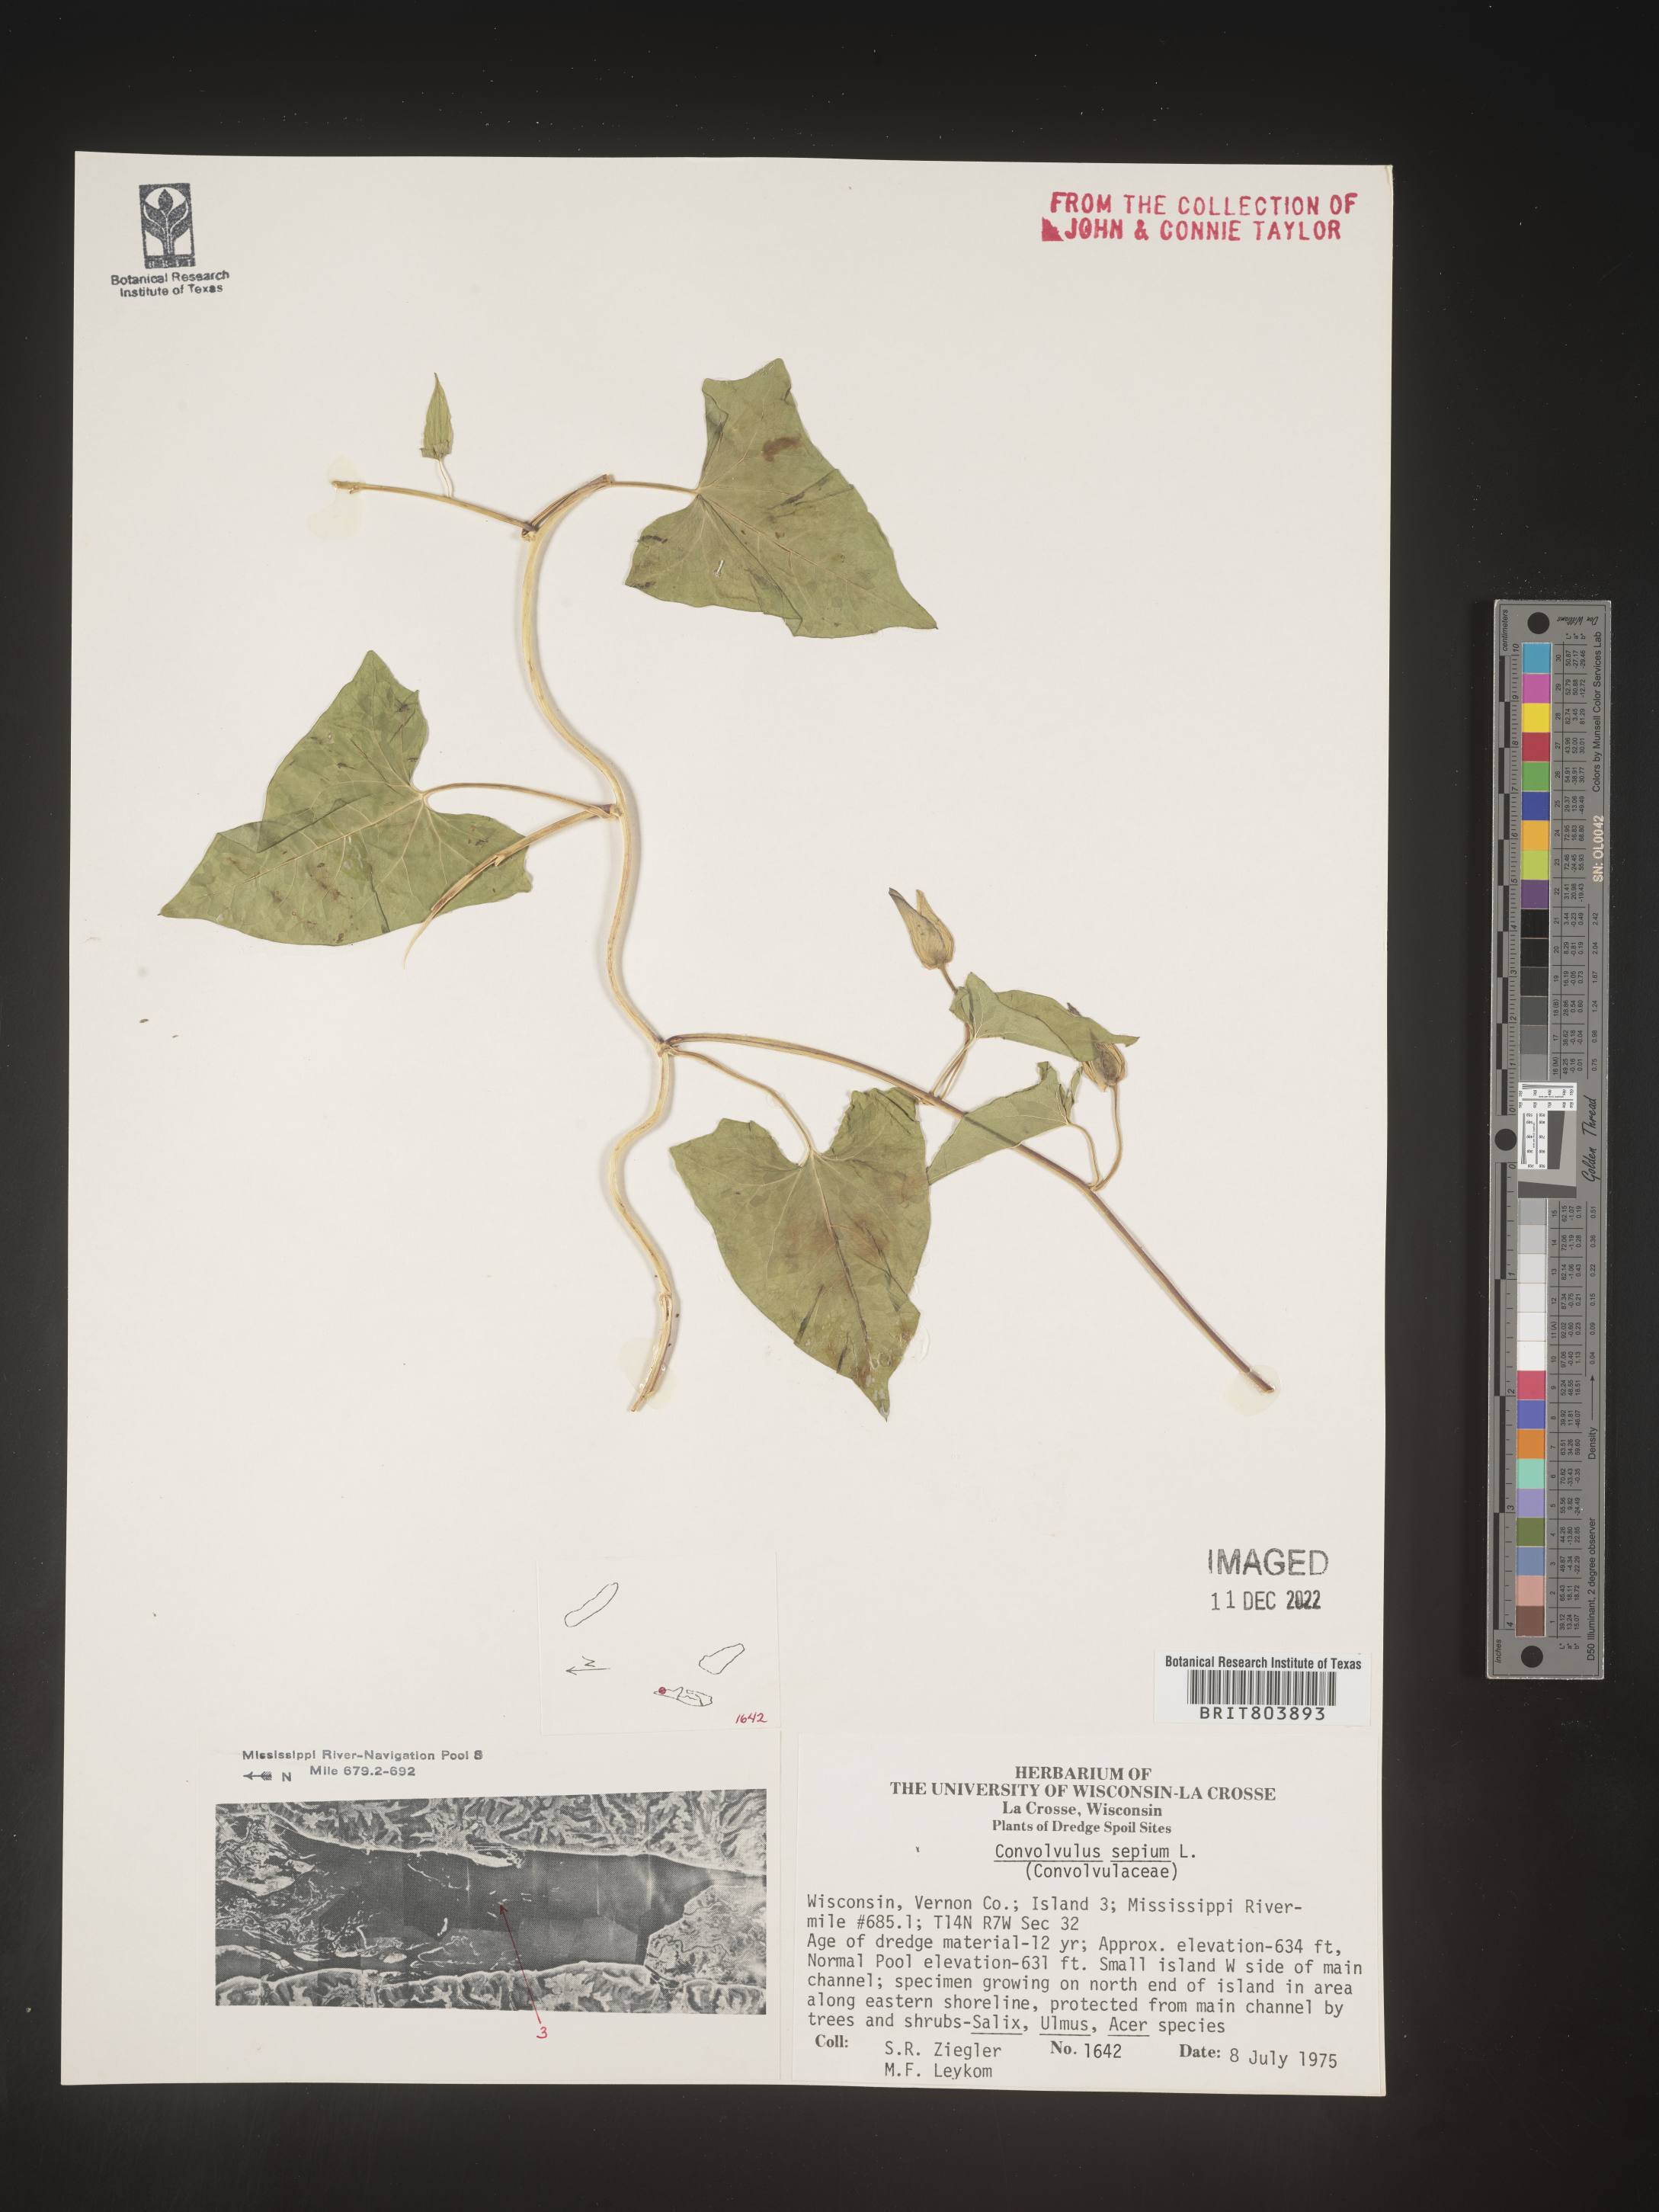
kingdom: Plantae
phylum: Tracheophyta
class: Magnoliopsida
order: Solanales
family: Convolvulaceae
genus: Calystegia
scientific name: Calystegia sepium
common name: Hedge bindweed
